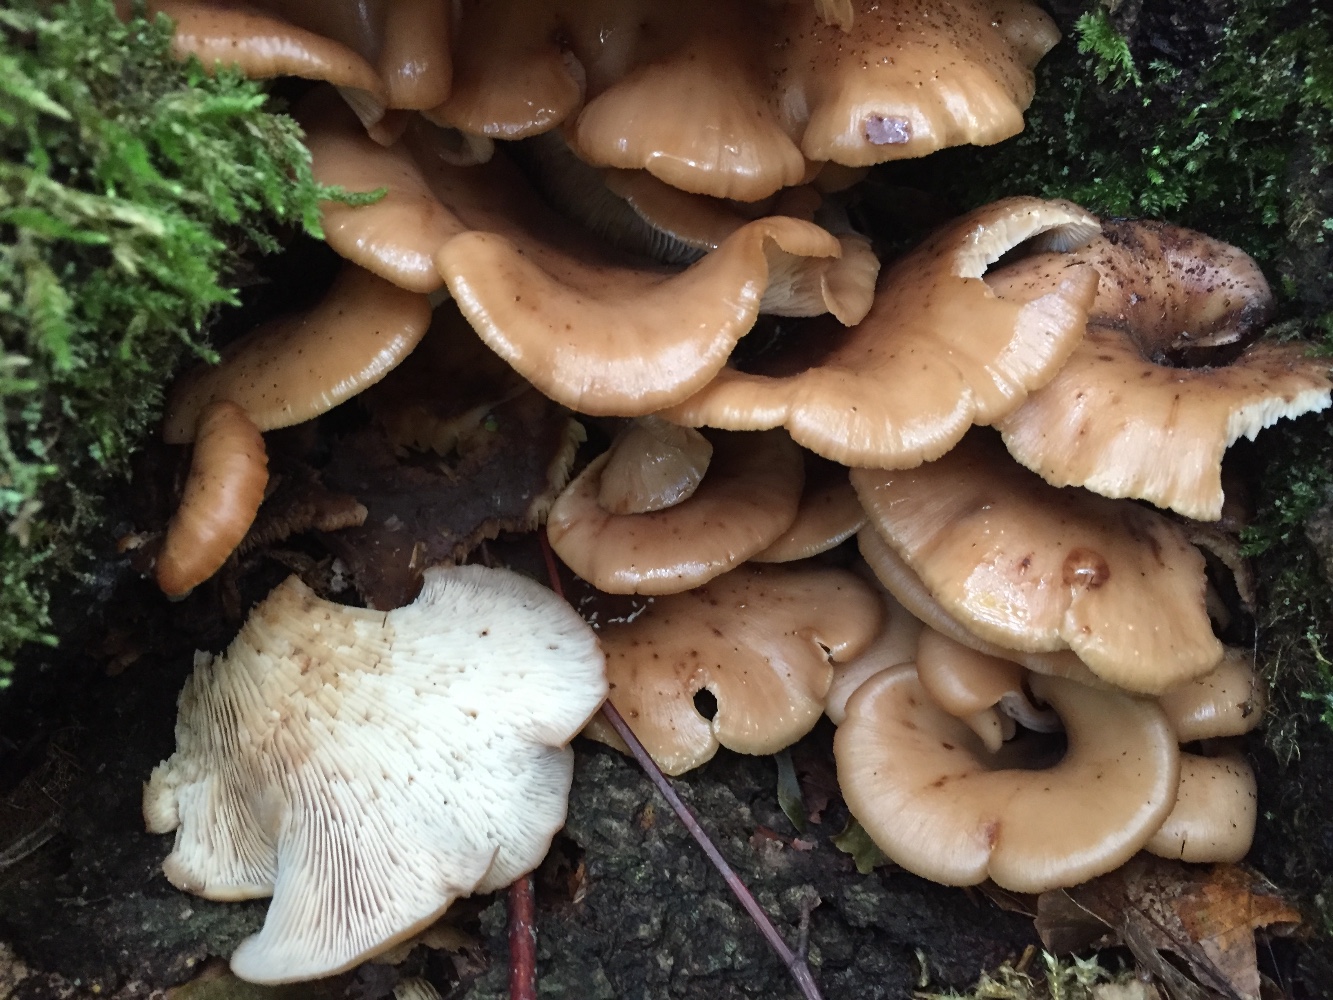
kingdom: Fungi
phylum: Basidiomycota
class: Agaricomycetes
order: Russulales
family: Auriscalpiaceae
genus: Lentinellus
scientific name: Lentinellus cochleatus
